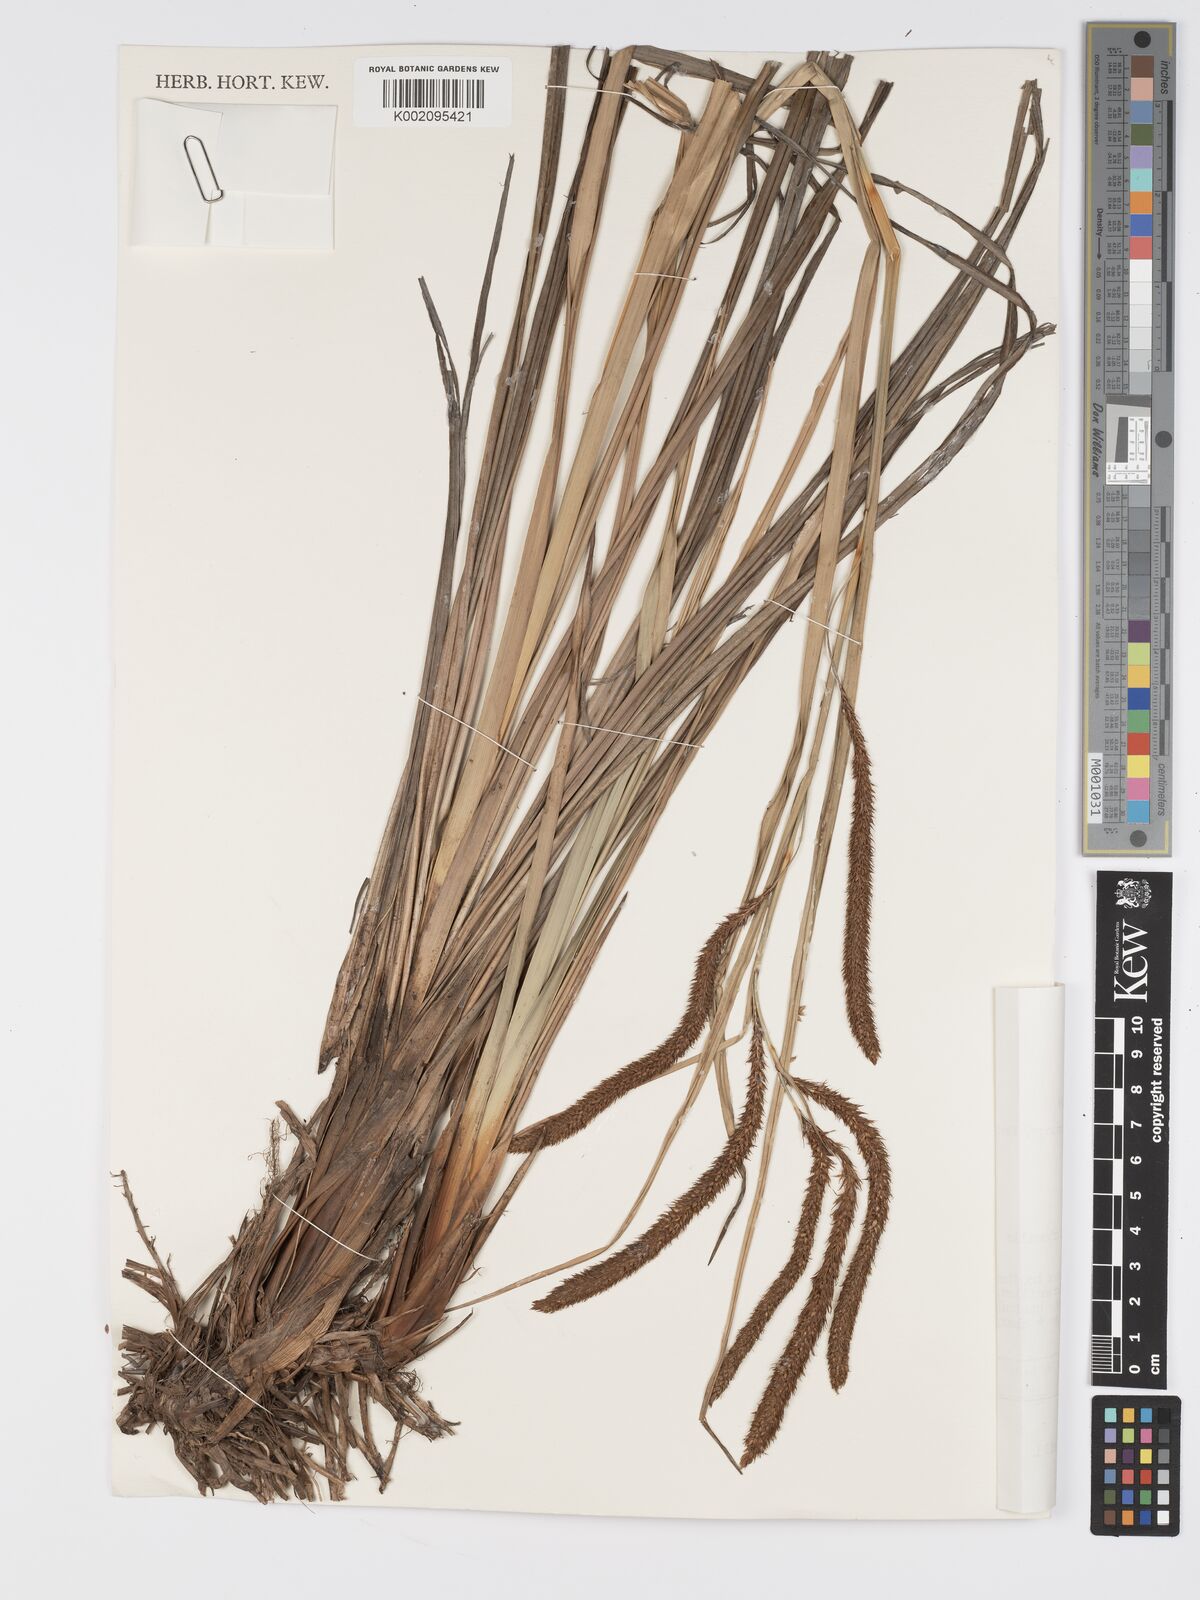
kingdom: Plantae
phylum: Tracheophyta
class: Liliopsida
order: Poales
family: Cyperaceae
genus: Carex
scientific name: Carex bequaertii
